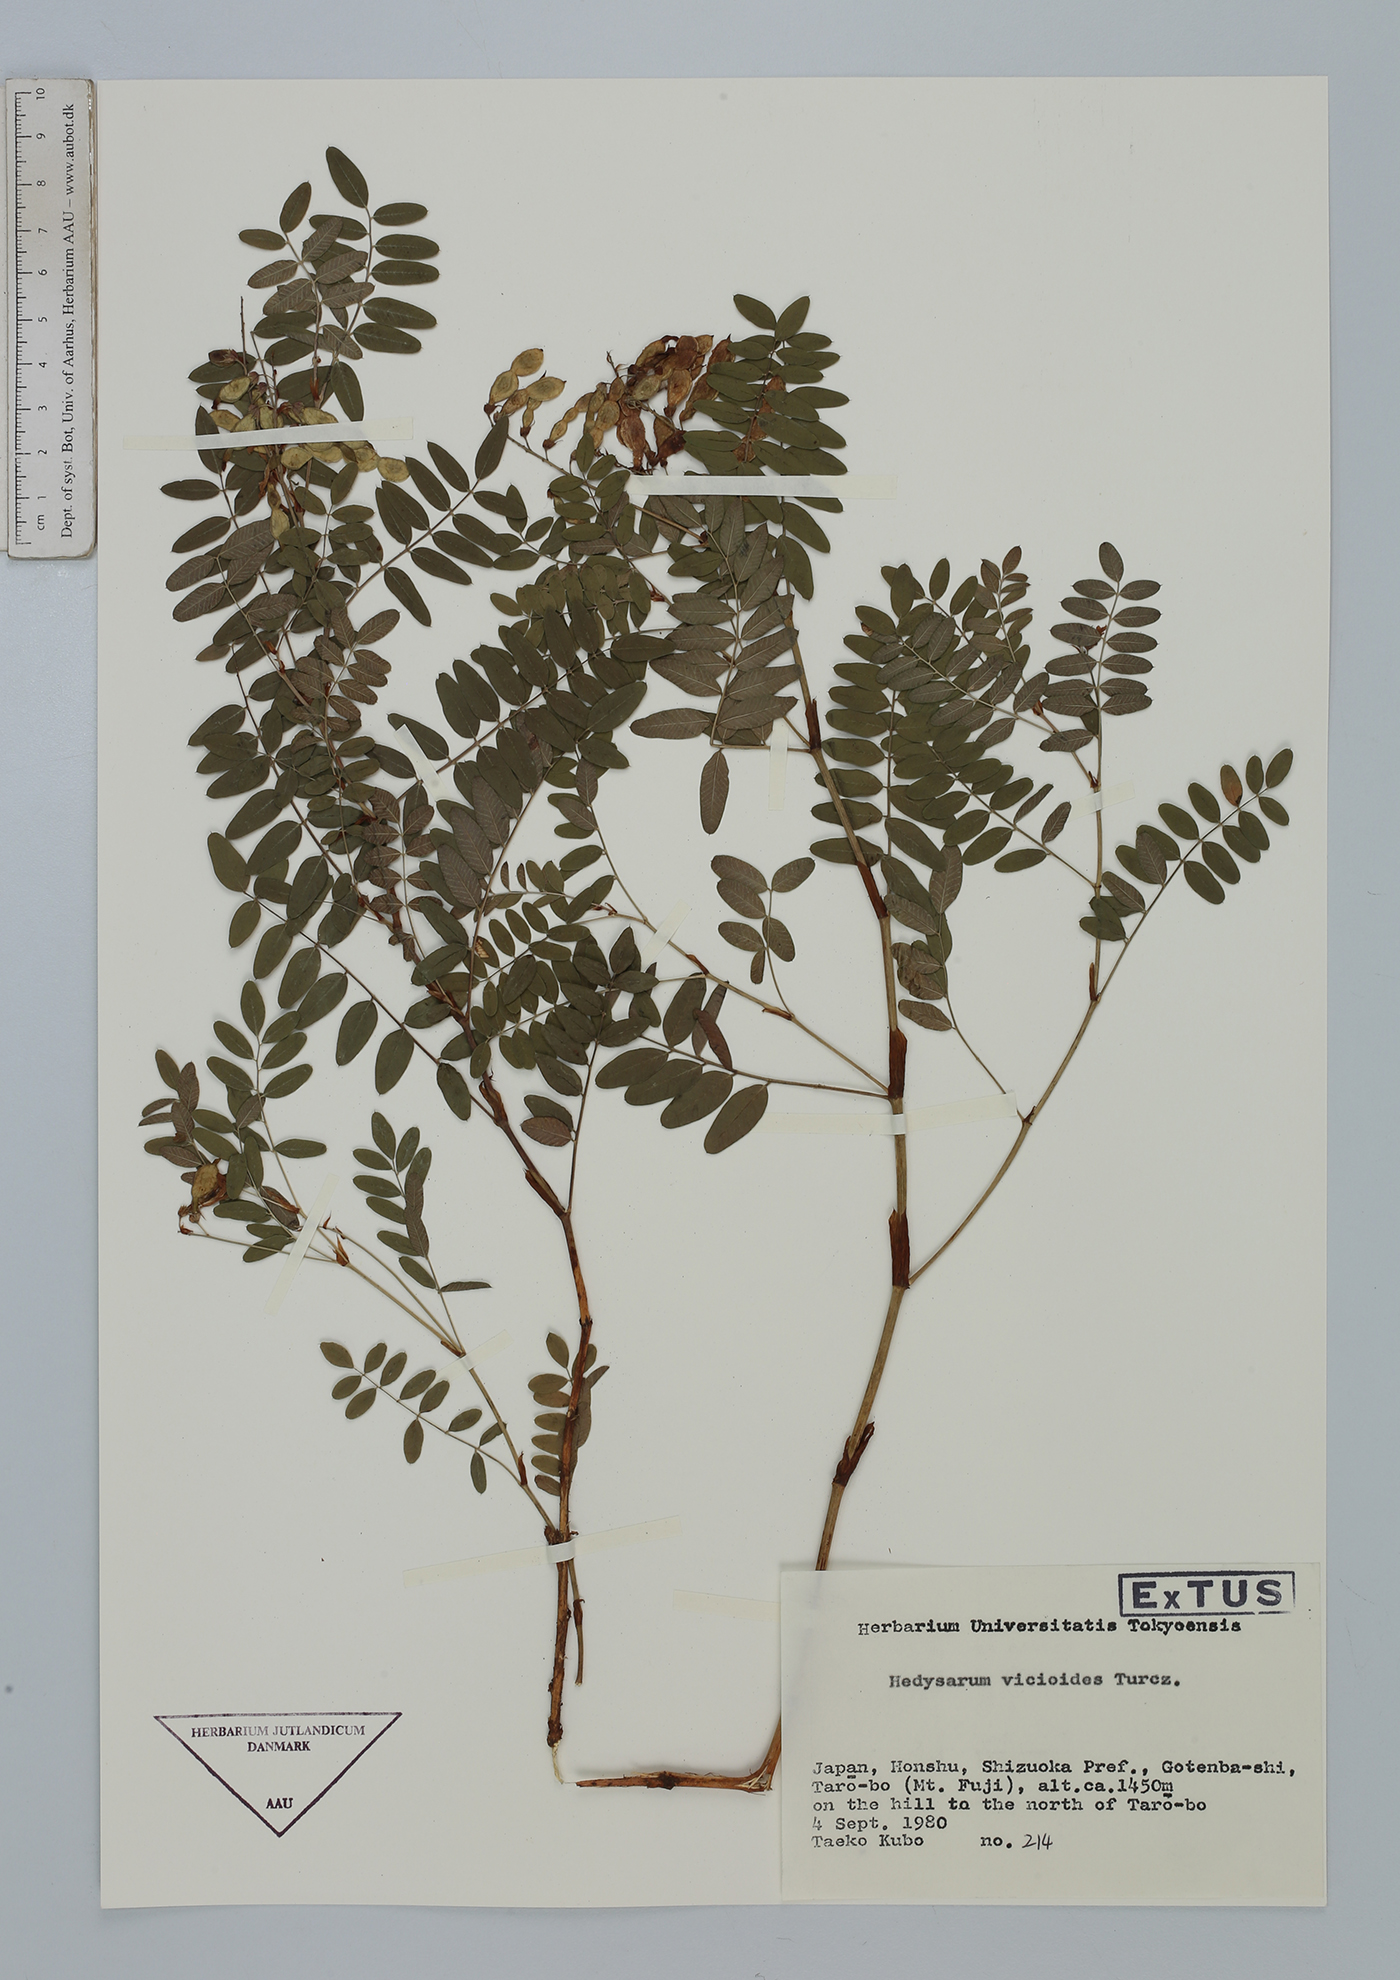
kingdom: Plantae
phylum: Tracheophyta
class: Magnoliopsida
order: Fabales
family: Fabaceae
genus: Hedysarum
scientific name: Hedysarum vicioides
